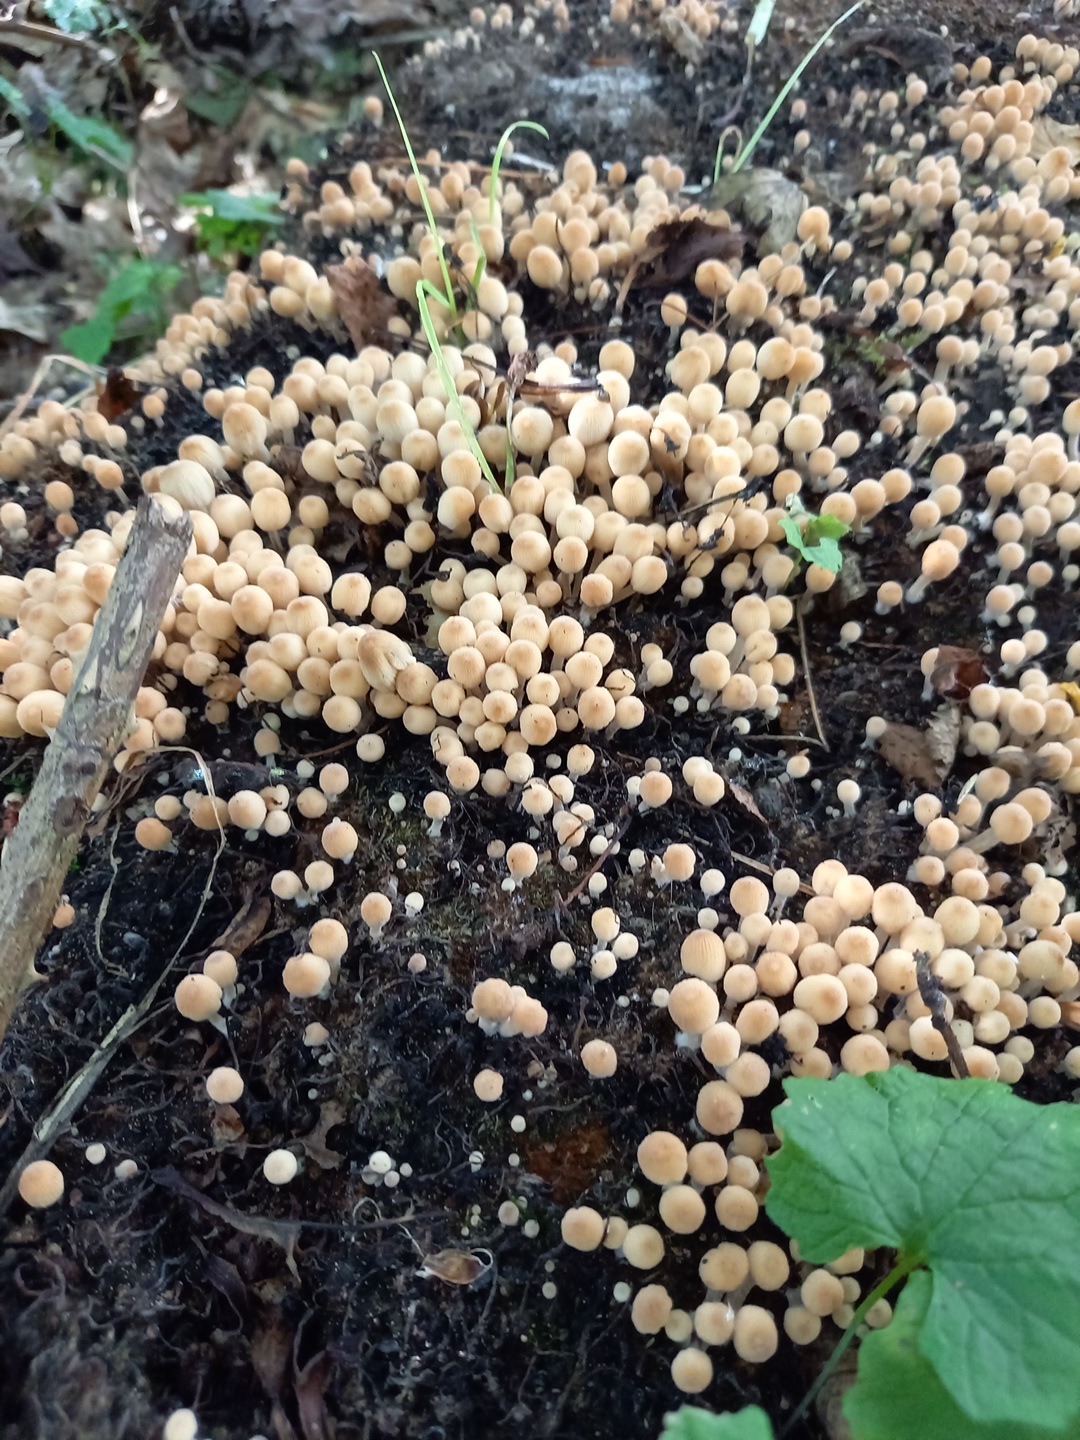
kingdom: Fungi
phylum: Basidiomycota
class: Agaricomycetes
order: Agaricales
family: Psathyrellaceae
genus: Coprinellus
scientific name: Coprinellus disseminatus
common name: bredsået blækhat
